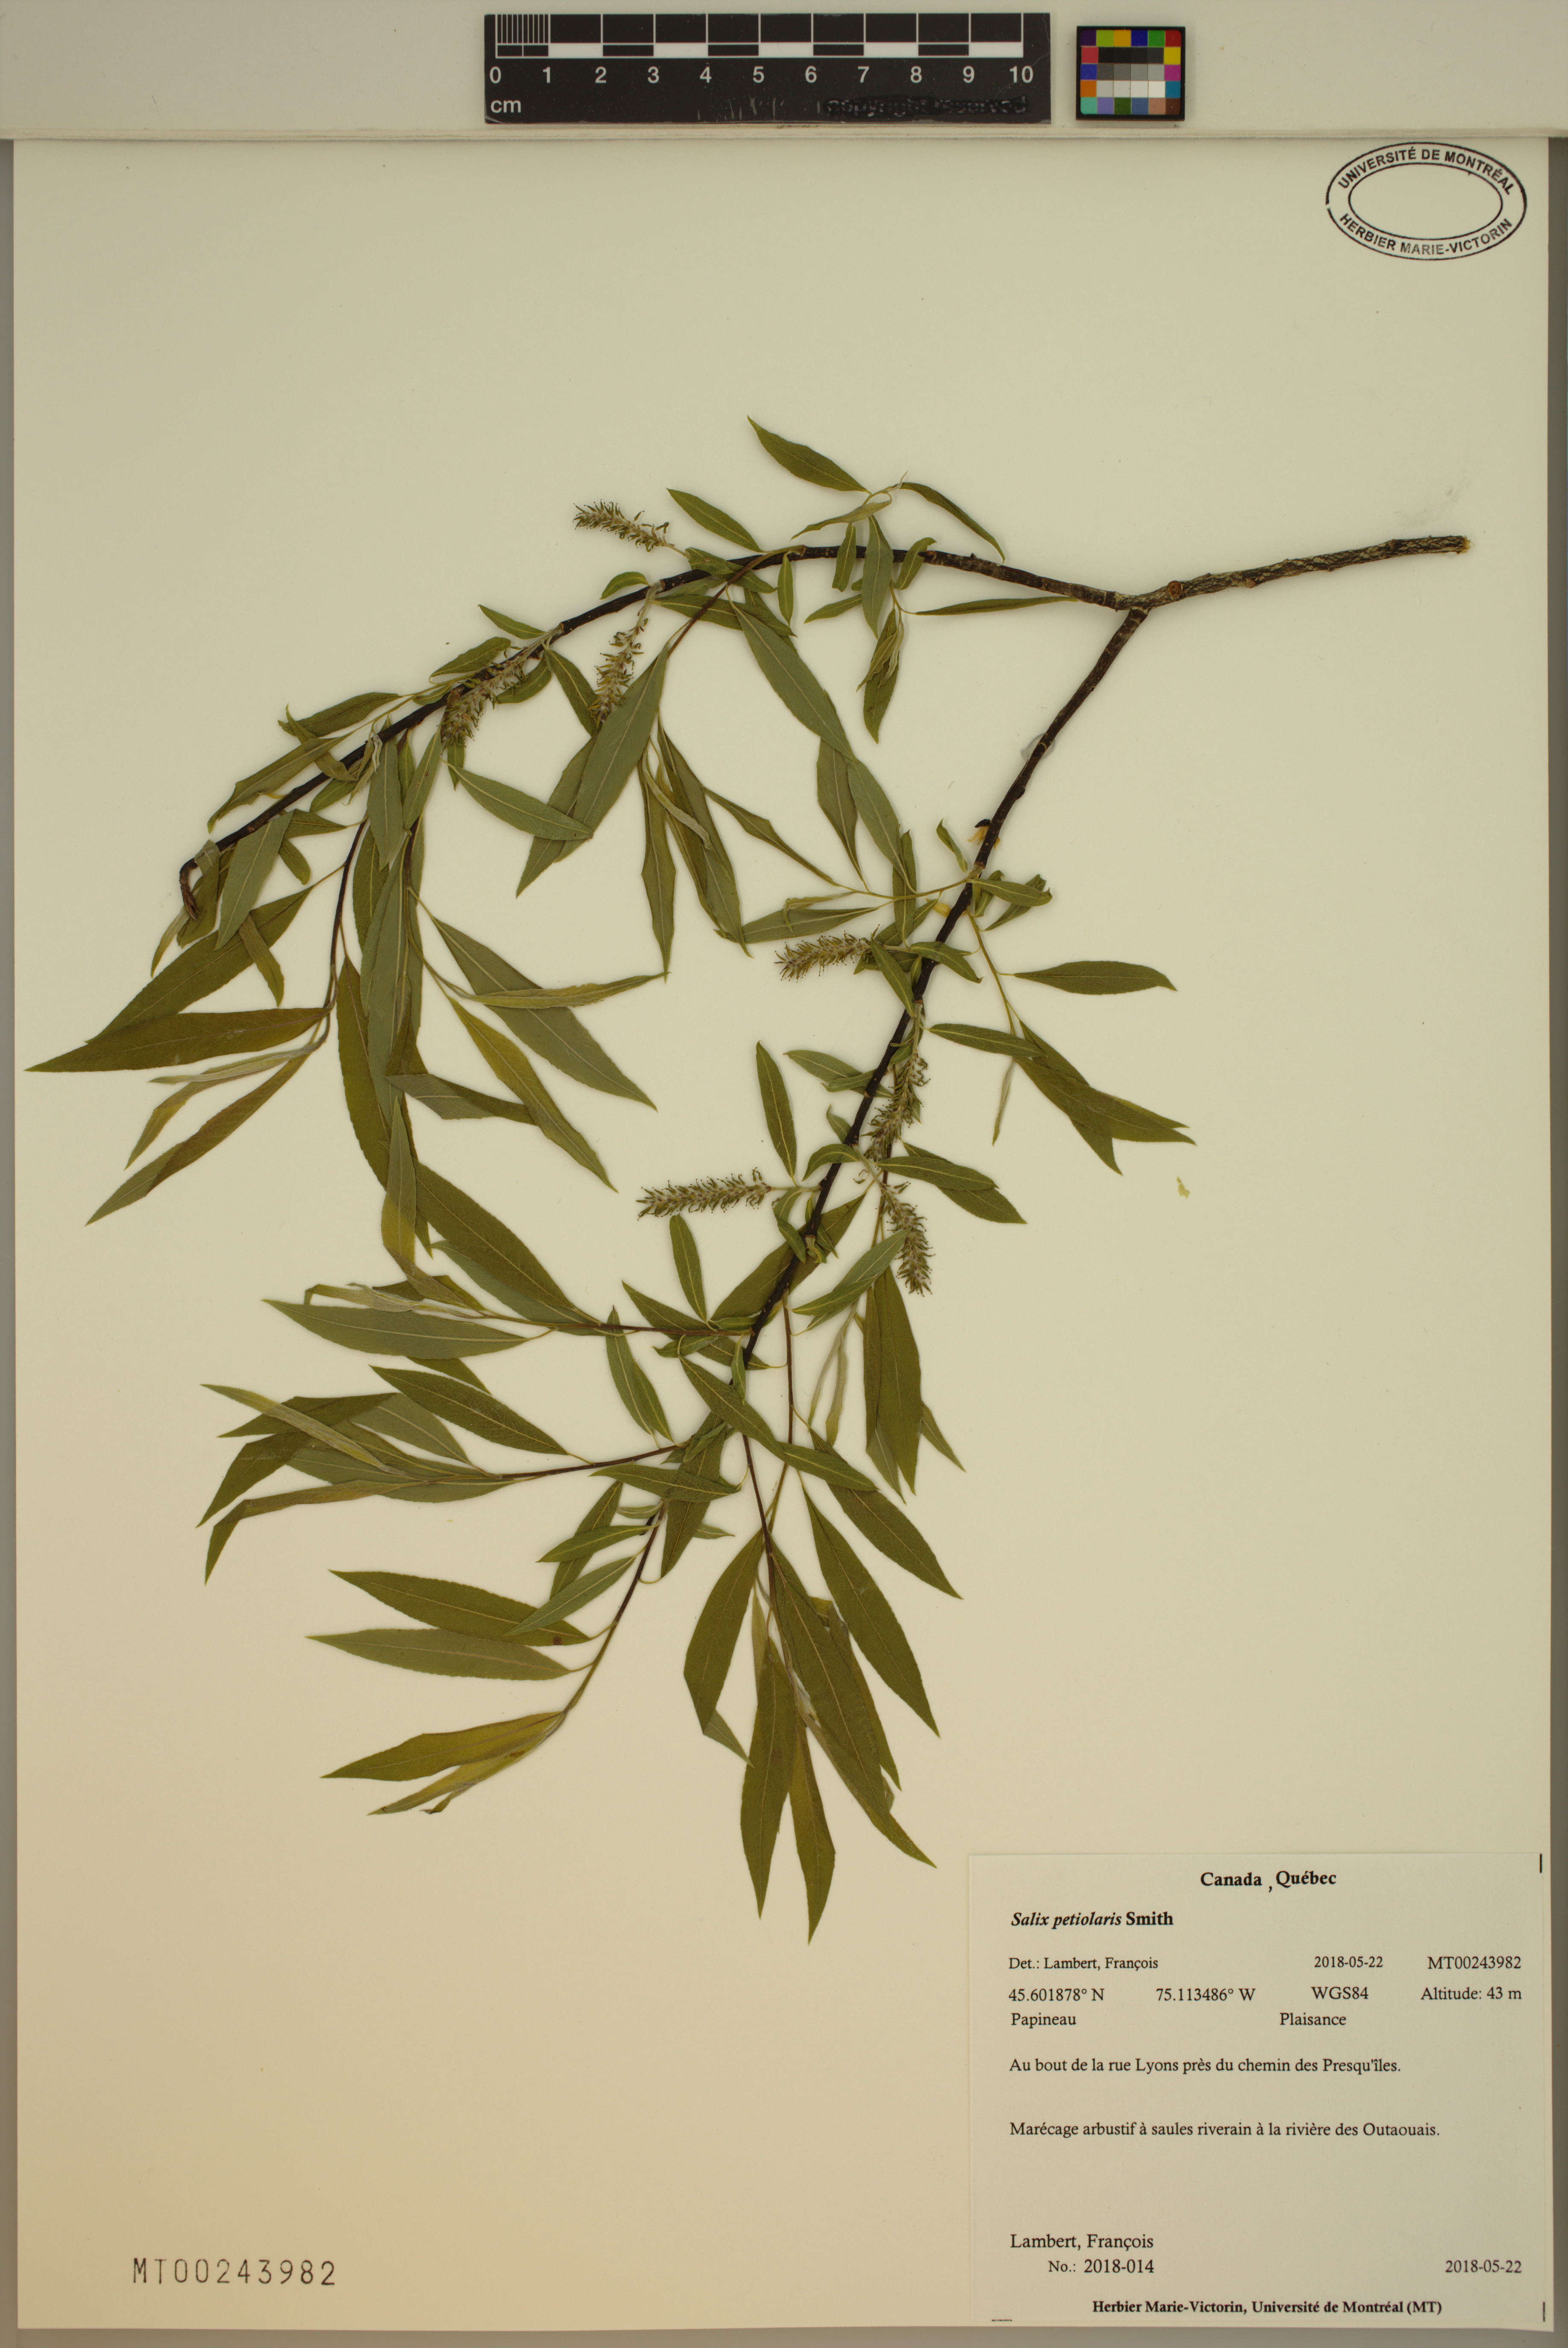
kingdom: Plantae
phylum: Tracheophyta
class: Magnoliopsida
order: Malpighiales
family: Salicaceae
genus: Salix
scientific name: Salix petiolaris
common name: Slender willow
